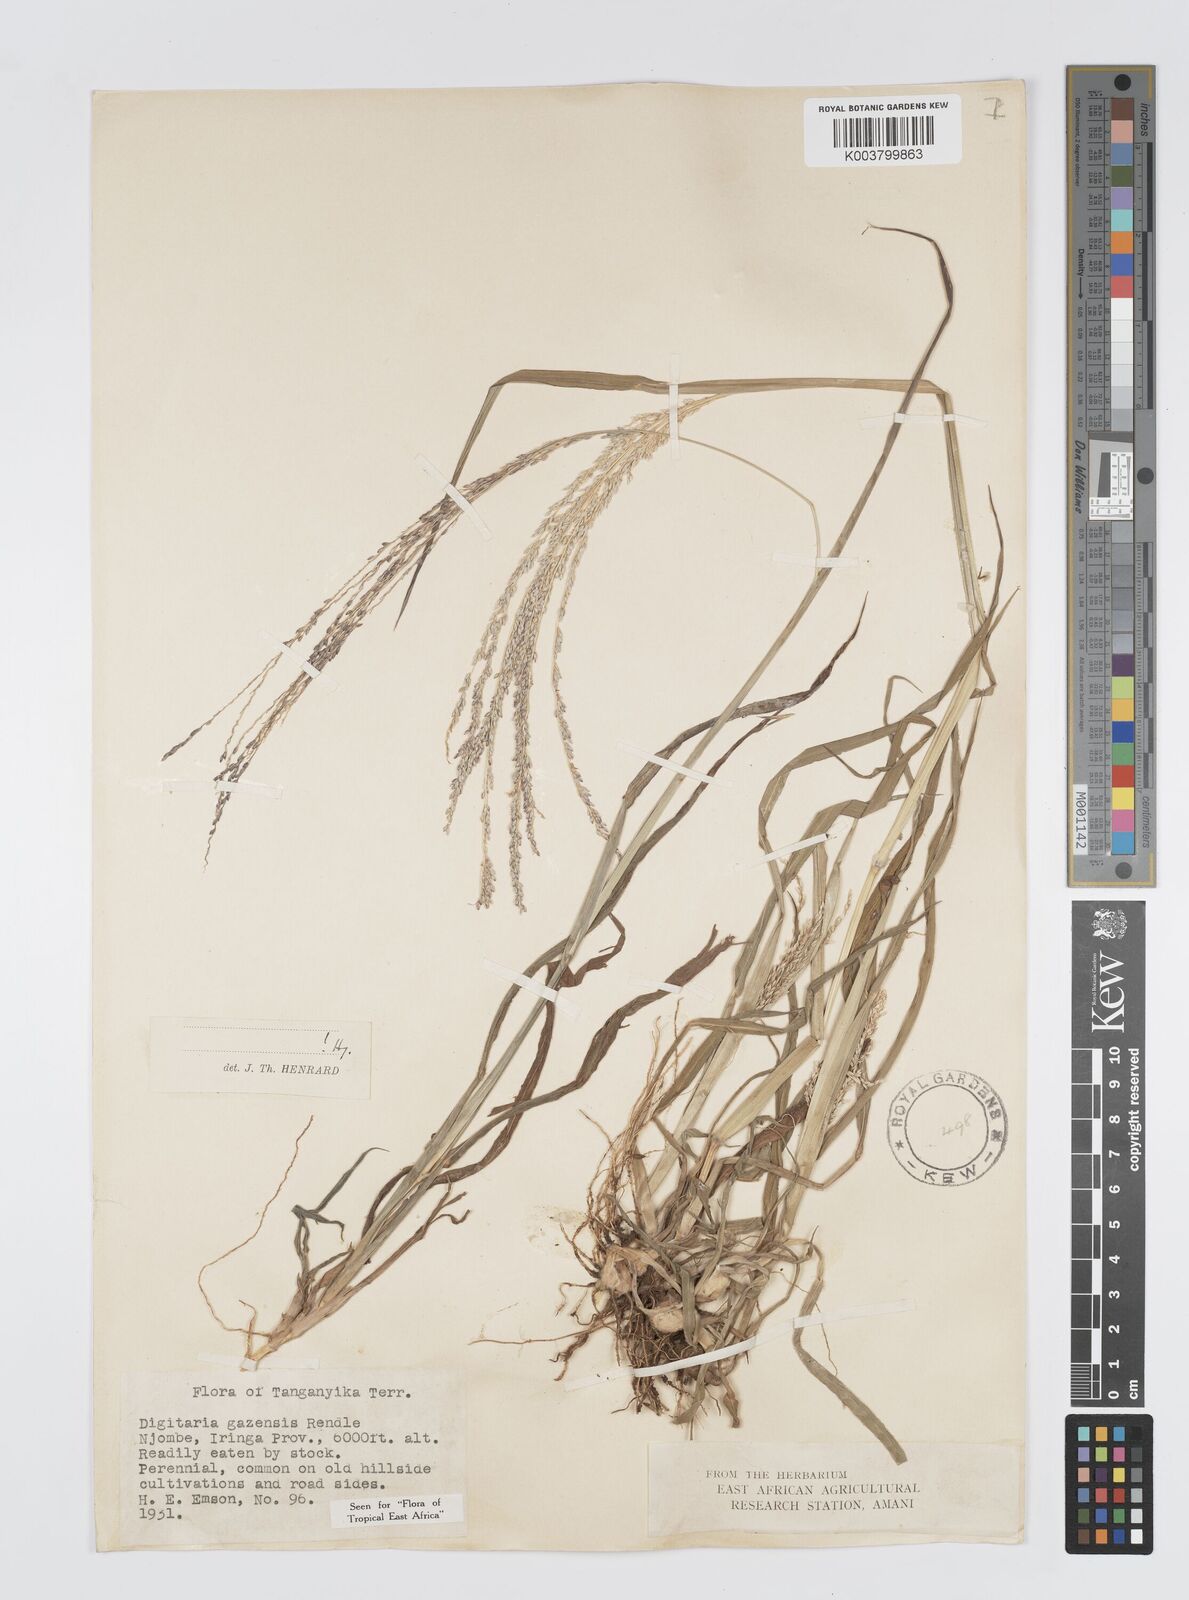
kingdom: Plantae
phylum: Tracheophyta
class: Liliopsida
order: Poales
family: Poaceae
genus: Digitaria
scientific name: Digitaria gazensis
